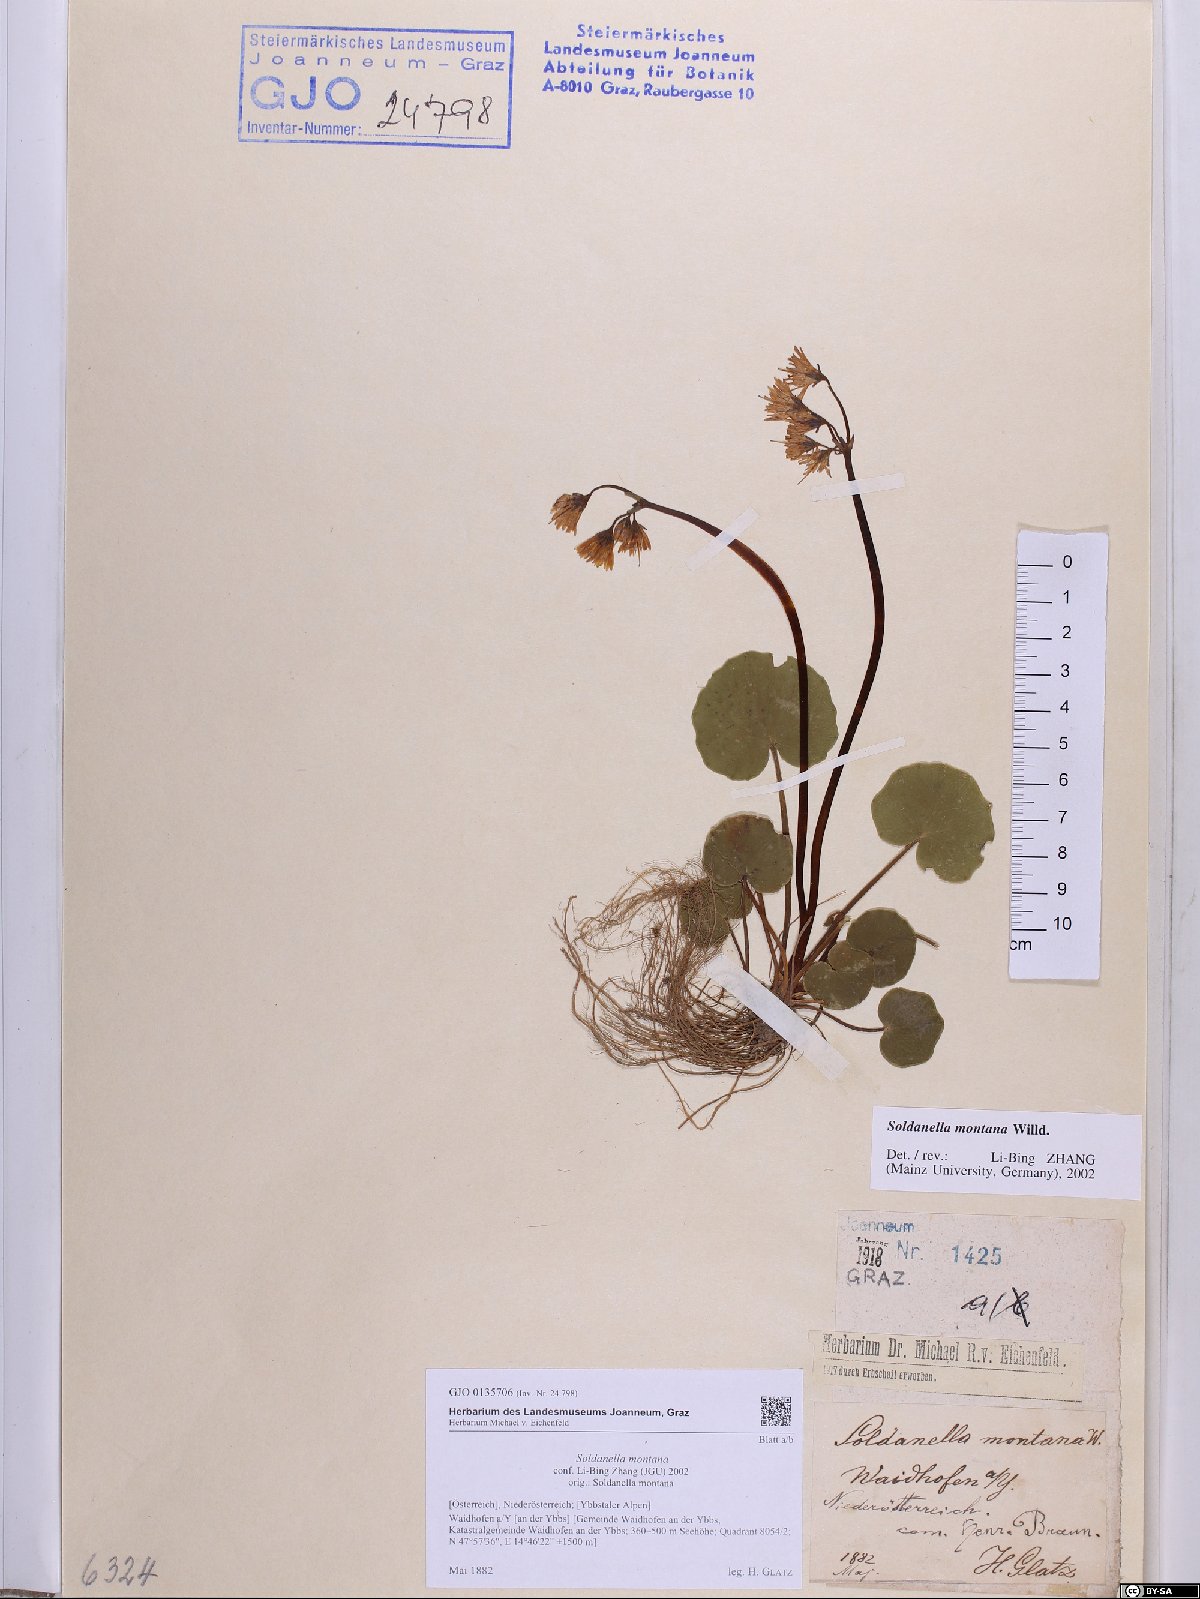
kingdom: Plantae
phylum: Tracheophyta
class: Magnoliopsida
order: Ericales
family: Primulaceae
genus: Soldanella
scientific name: Soldanella montana
